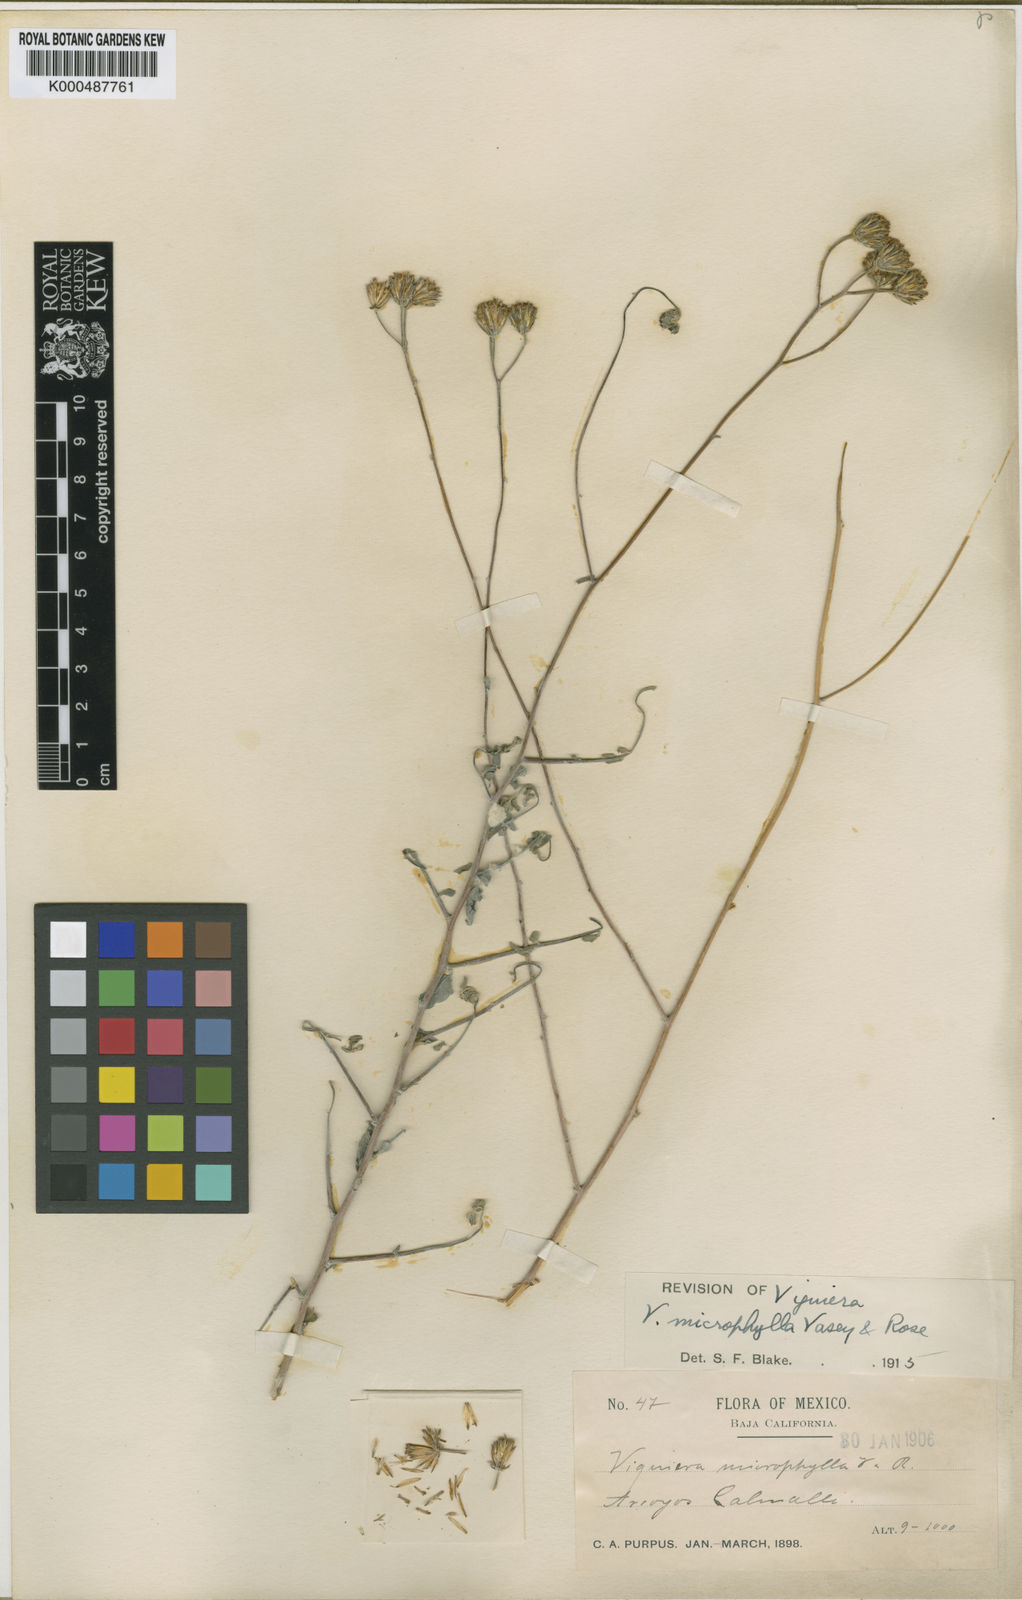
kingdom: Plantae
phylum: Tracheophyta
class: Magnoliopsida
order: Asterales
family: Asteraceae
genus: Bahiopsis
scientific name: Bahiopsis microphylla
